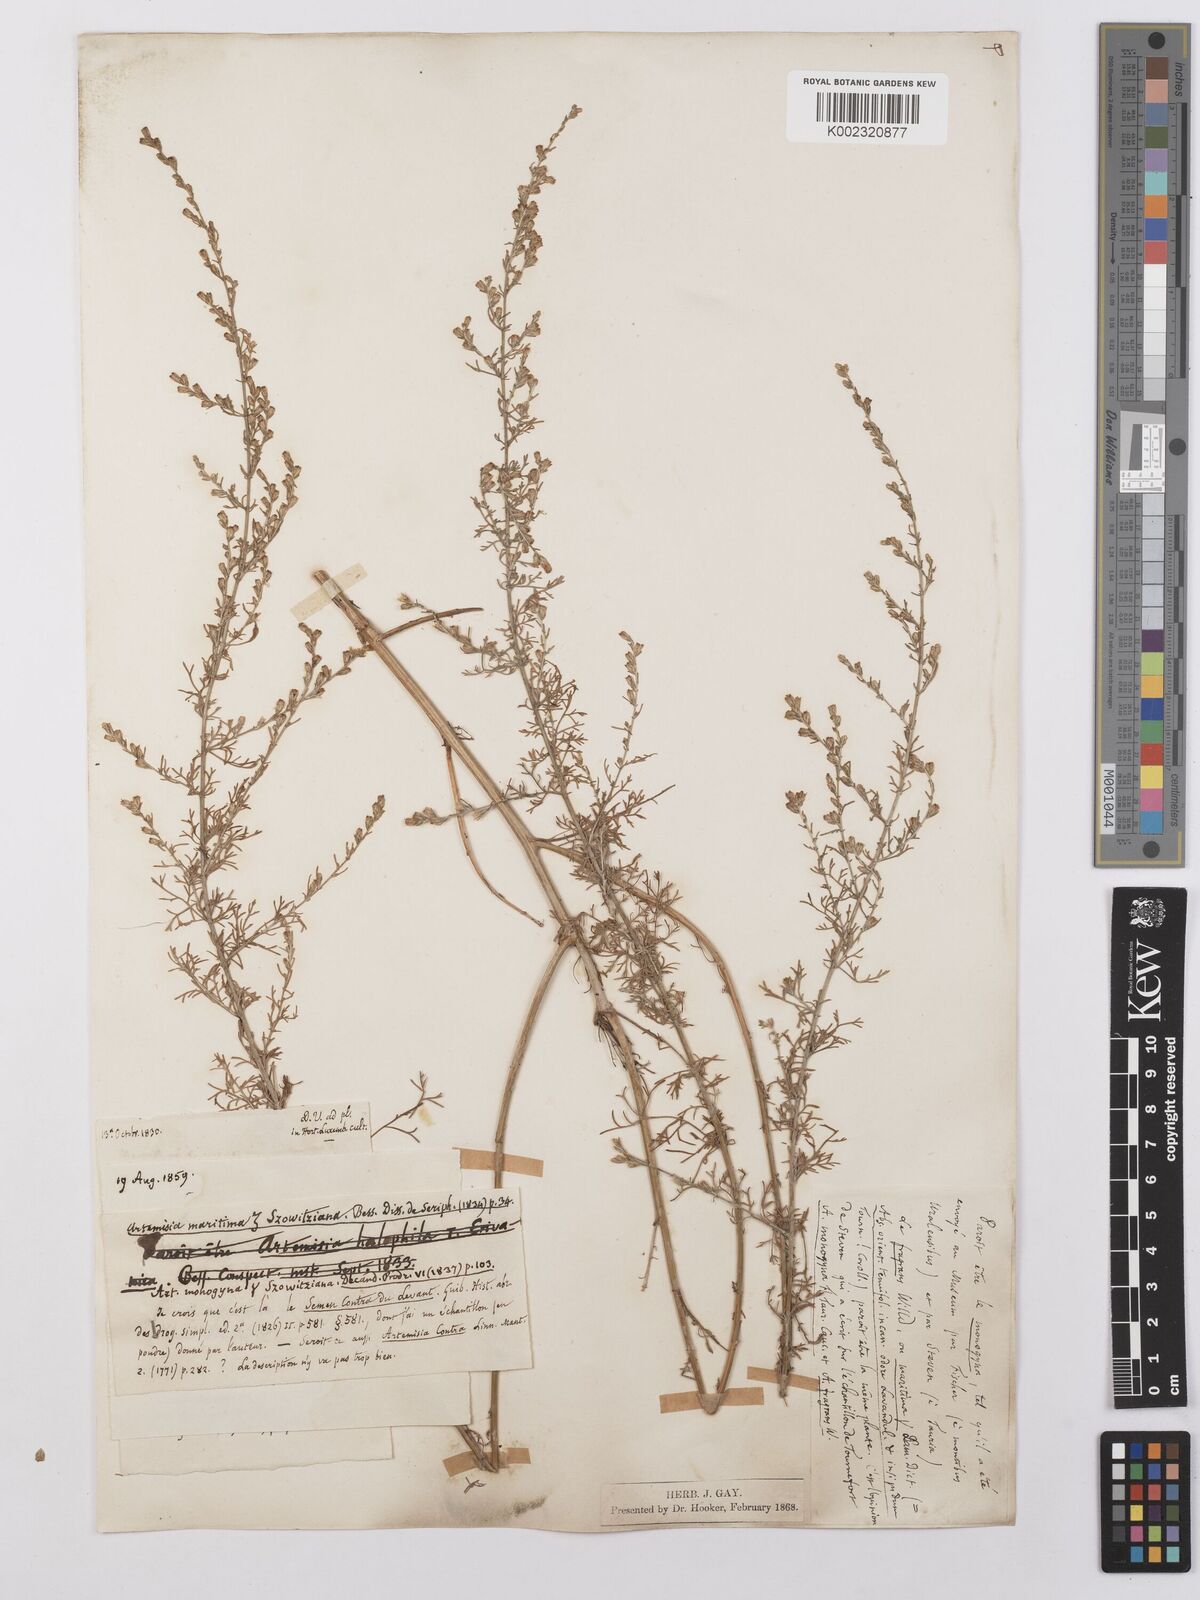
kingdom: Plantae
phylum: Tracheophyta
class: Magnoliopsida
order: Asterales
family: Asteraceae
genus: Artemisia
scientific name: Artemisia santonicum
